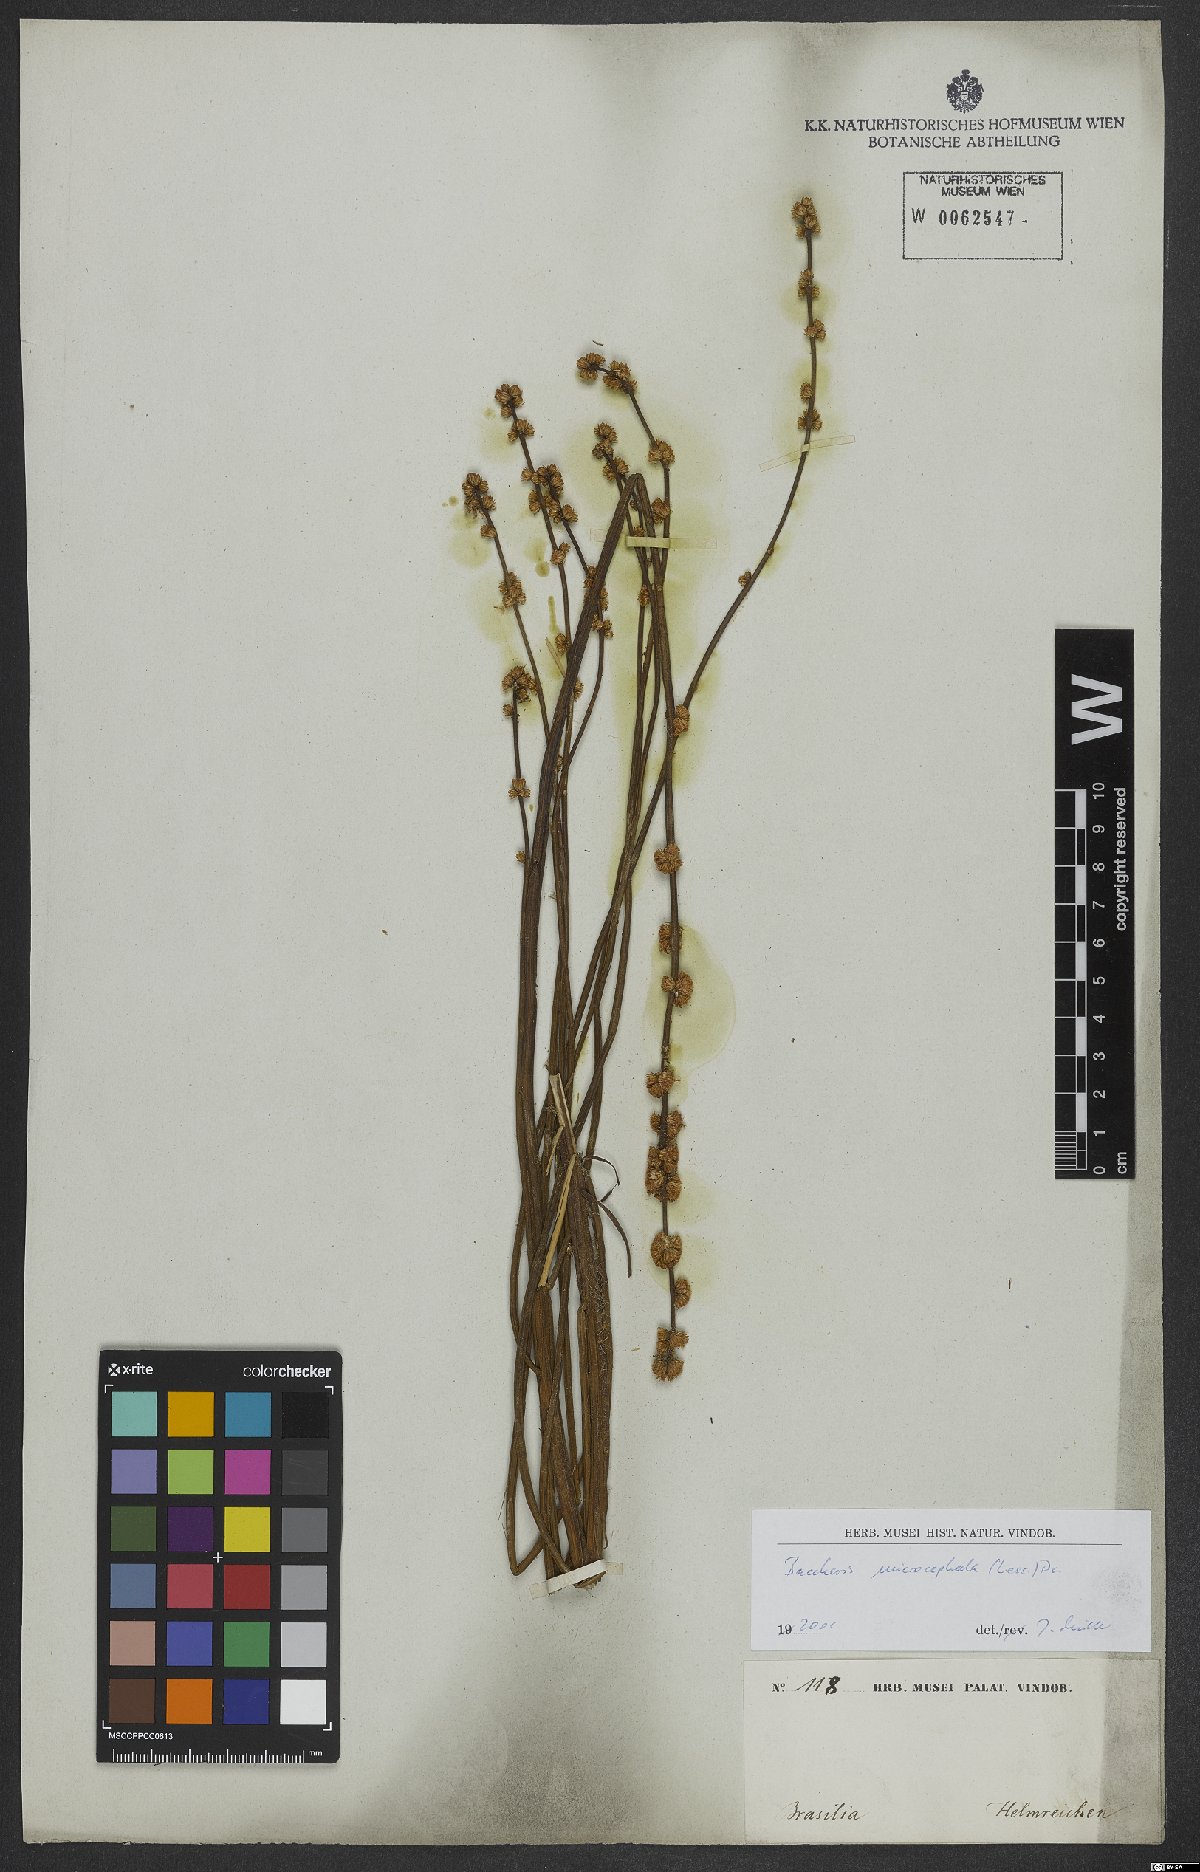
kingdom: Plantae
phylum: Tracheophyta
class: Magnoliopsida
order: Asterales
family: Asteraceae
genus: Baccharis
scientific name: Baccharis microcephala
